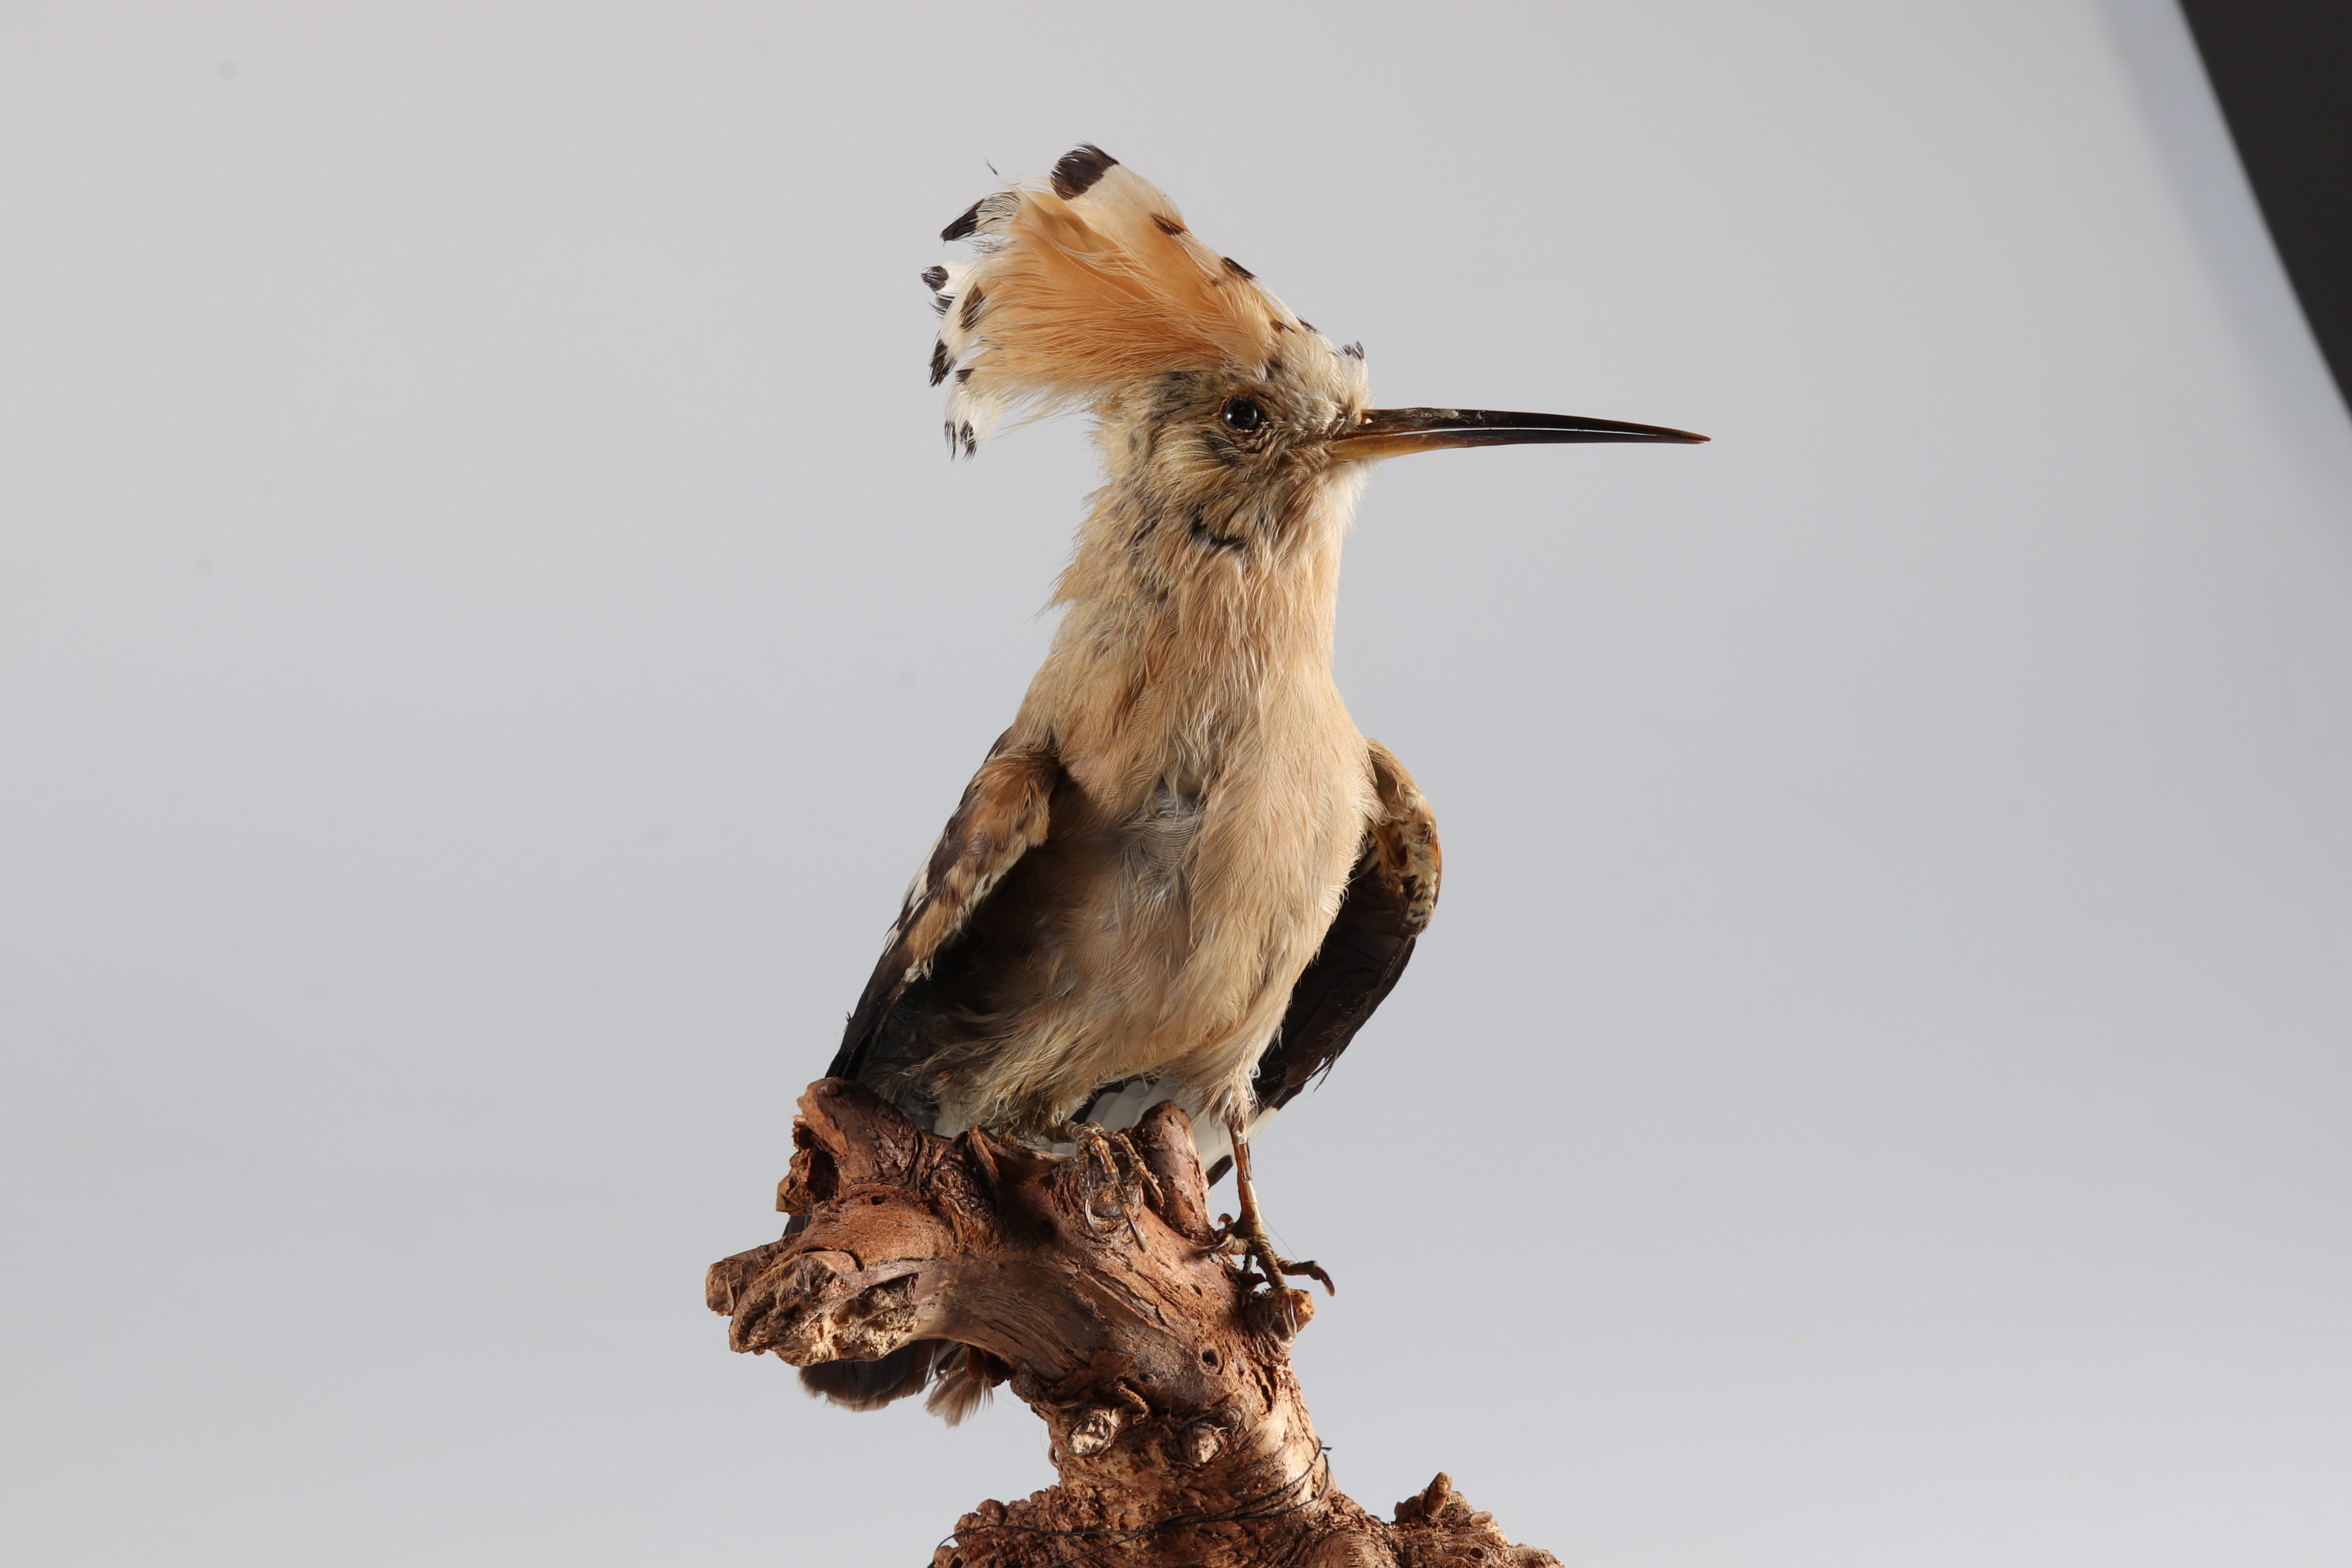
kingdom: Animalia
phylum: Chordata
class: Aves
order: Bucerotiformes
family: Upupidae
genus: Upupa
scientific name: Upupa epops
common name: Eurasian hoopoe
